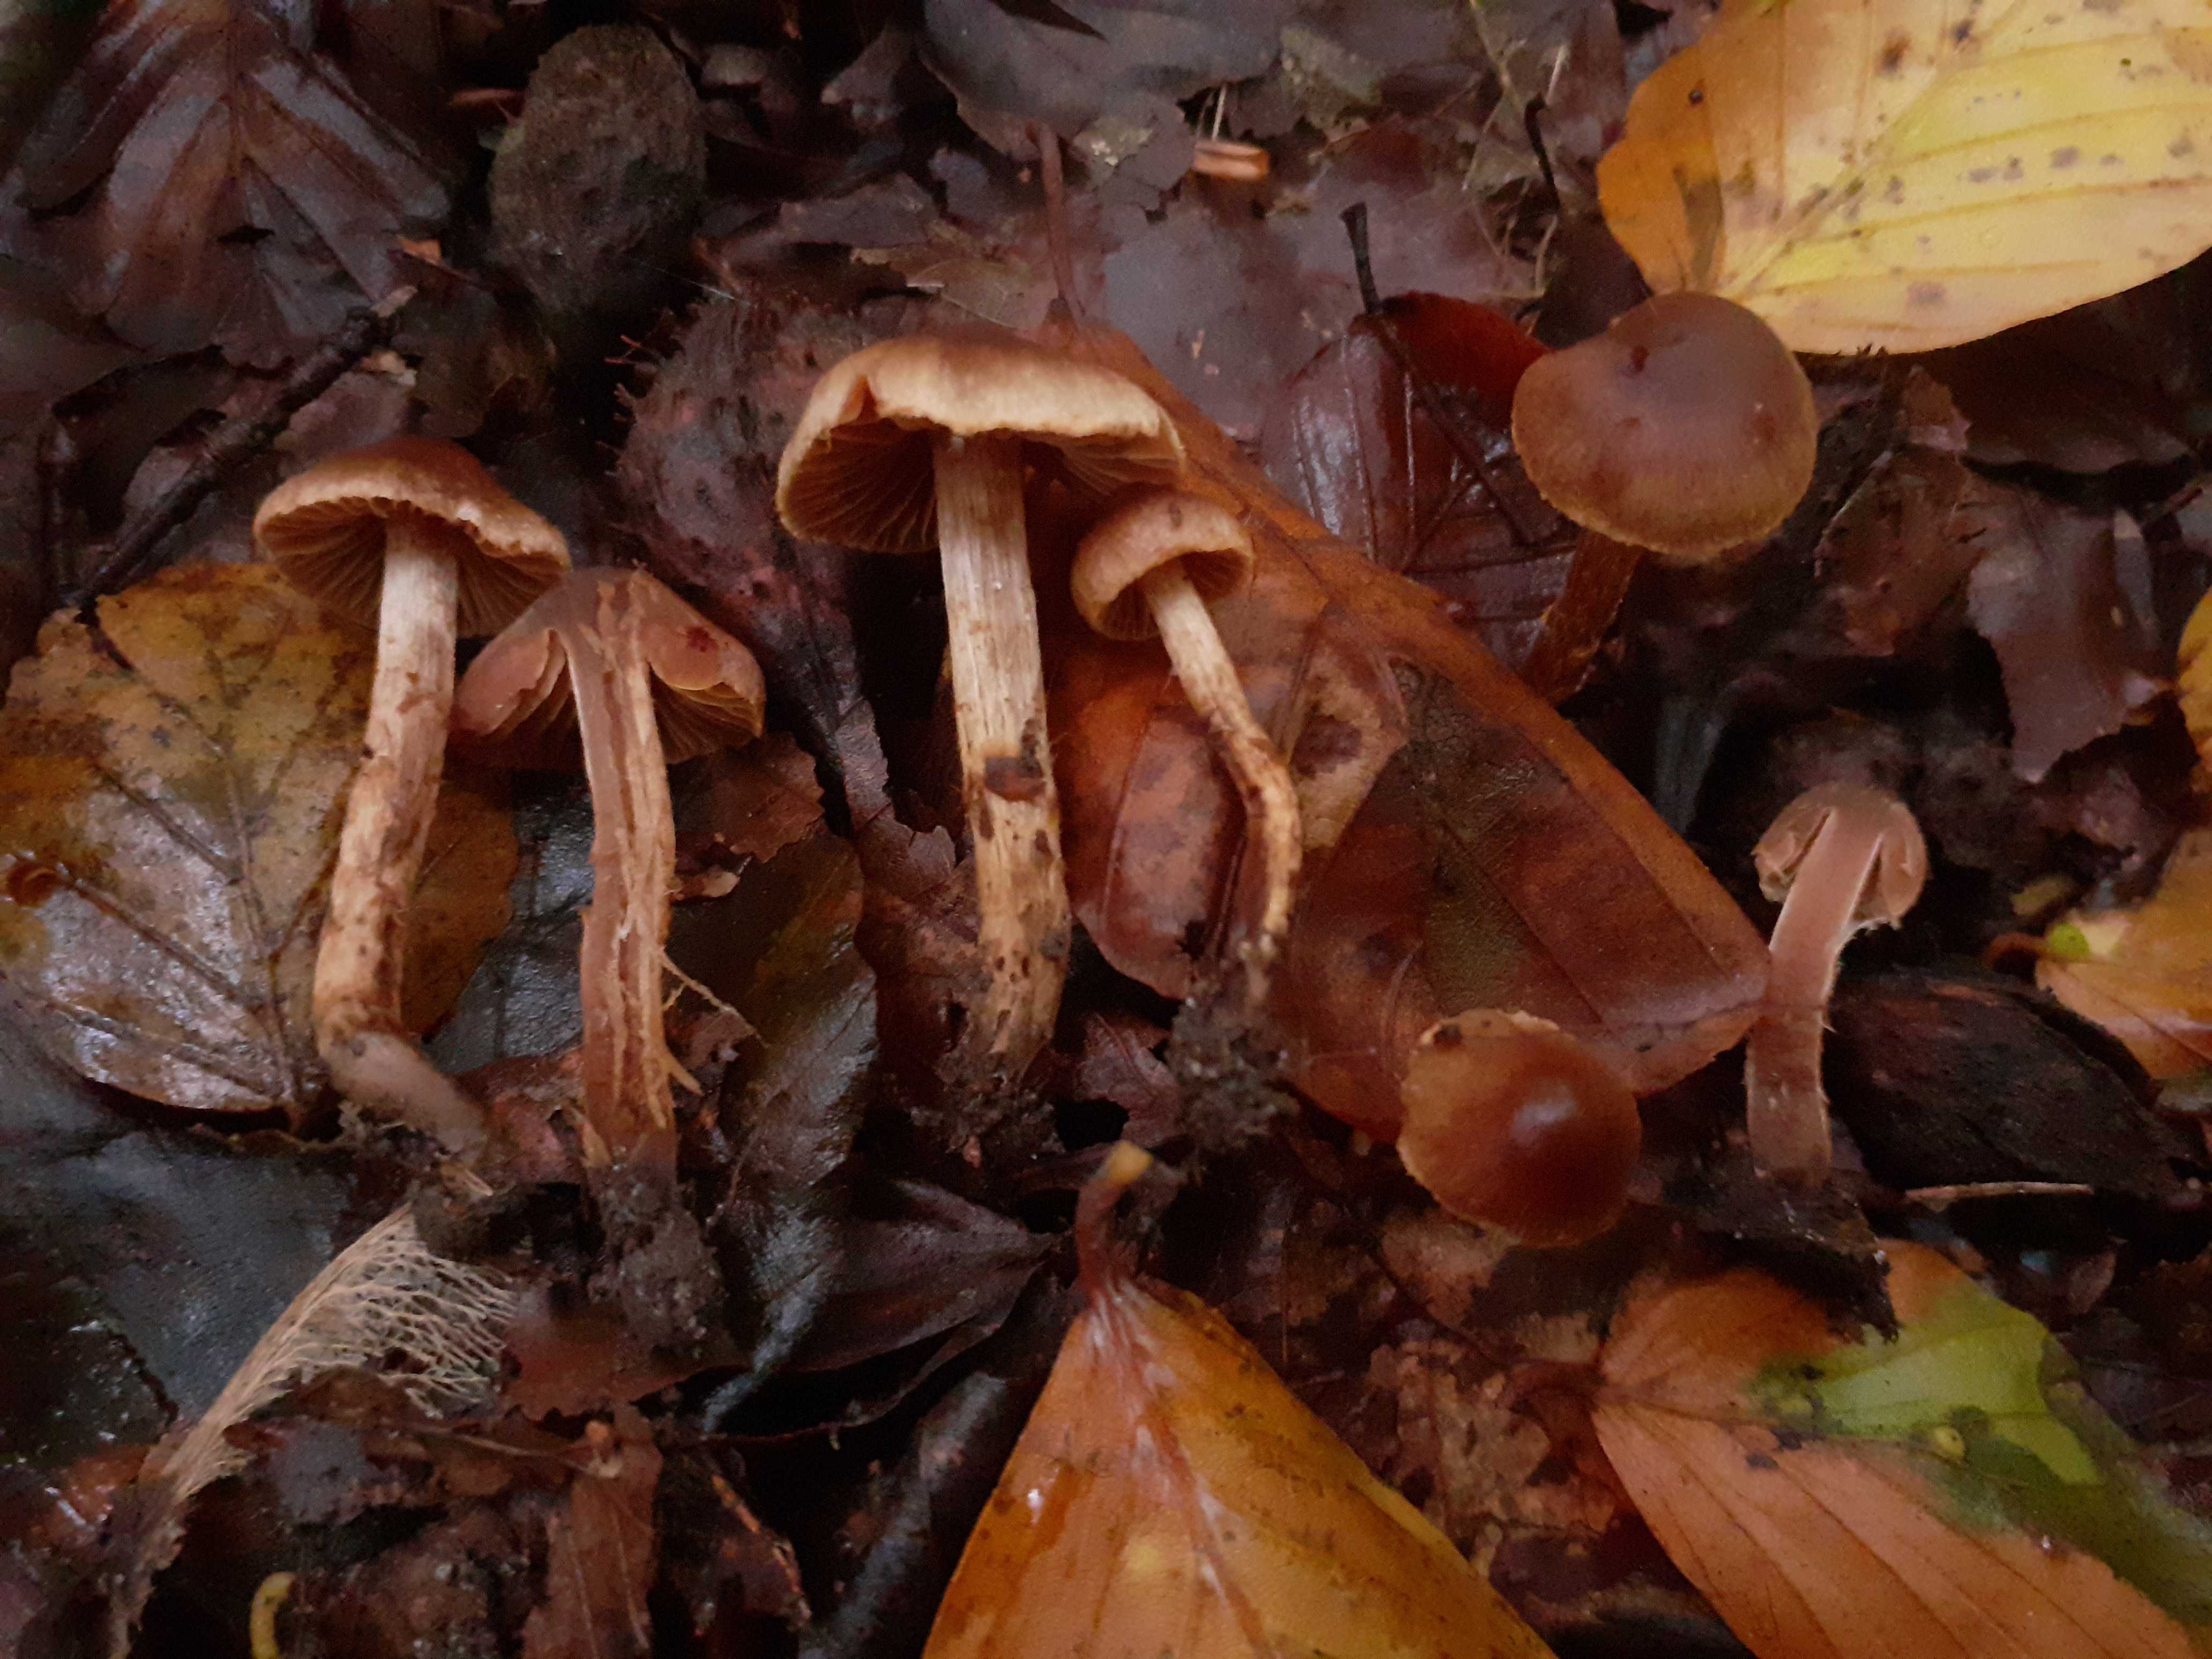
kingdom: Fungi
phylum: Basidiomycota
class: Agaricomycetes
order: Agaricales
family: Cortinariaceae
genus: Cortinarius
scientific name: Cortinarius castaneopallidus
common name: bronzetrævlet slørhat
